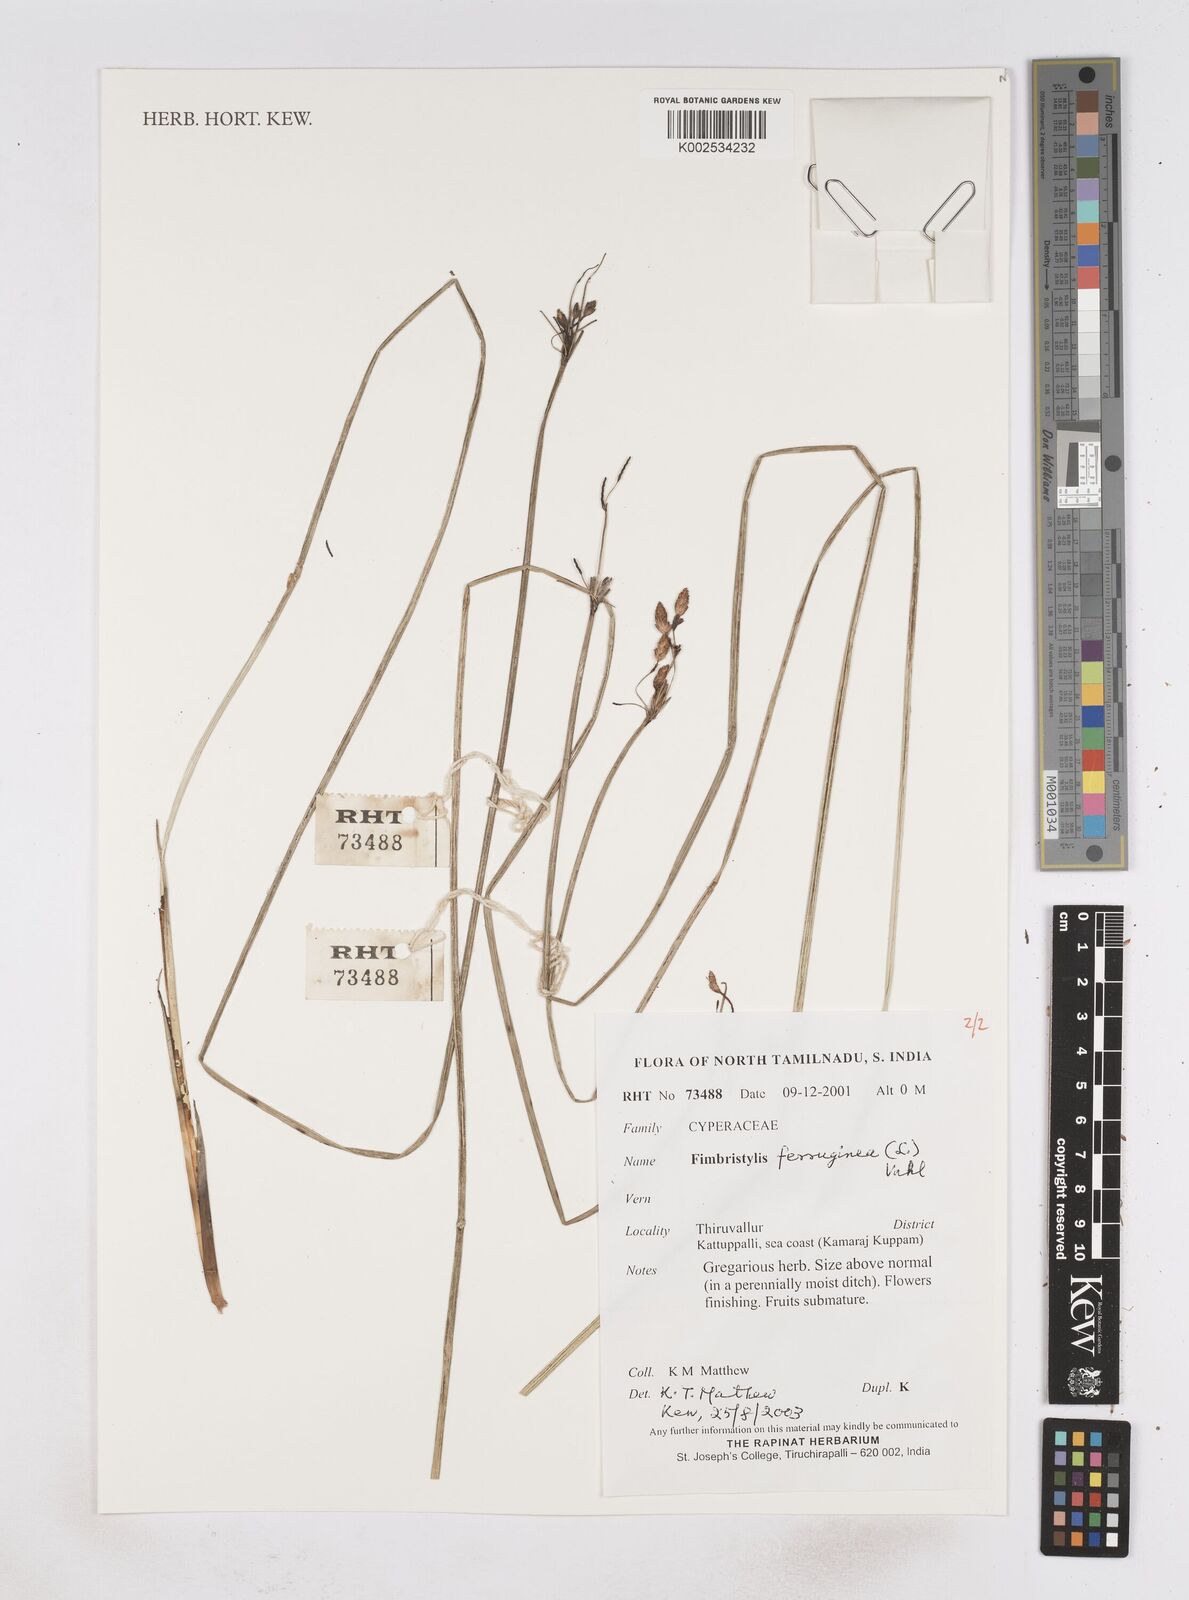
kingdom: Plantae
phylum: Tracheophyta
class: Liliopsida
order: Poales
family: Cyperaceae
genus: Fimbristylis
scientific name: Fimbristylis ferruginea
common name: West indian fimbry
